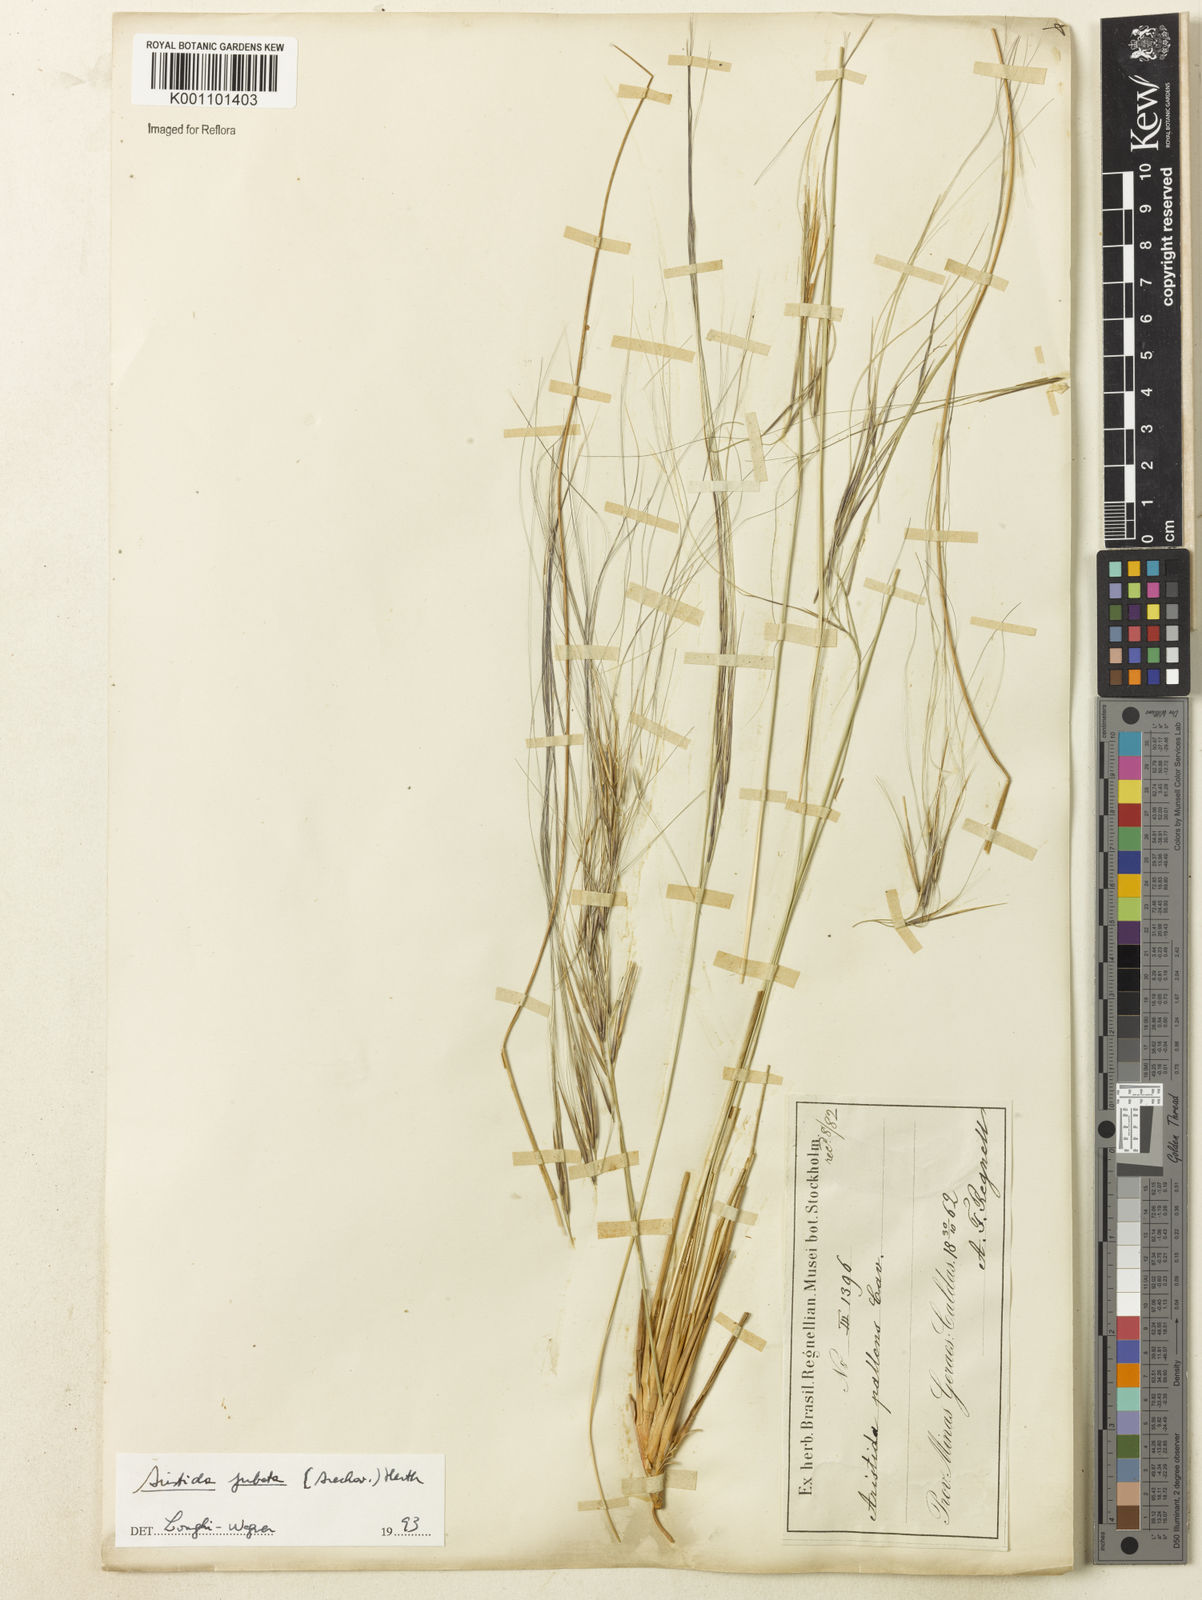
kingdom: Plantae
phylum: Tracheophyta
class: Liliopsida
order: Poales
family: Poaceae
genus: Aristida
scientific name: Aristida jubata
